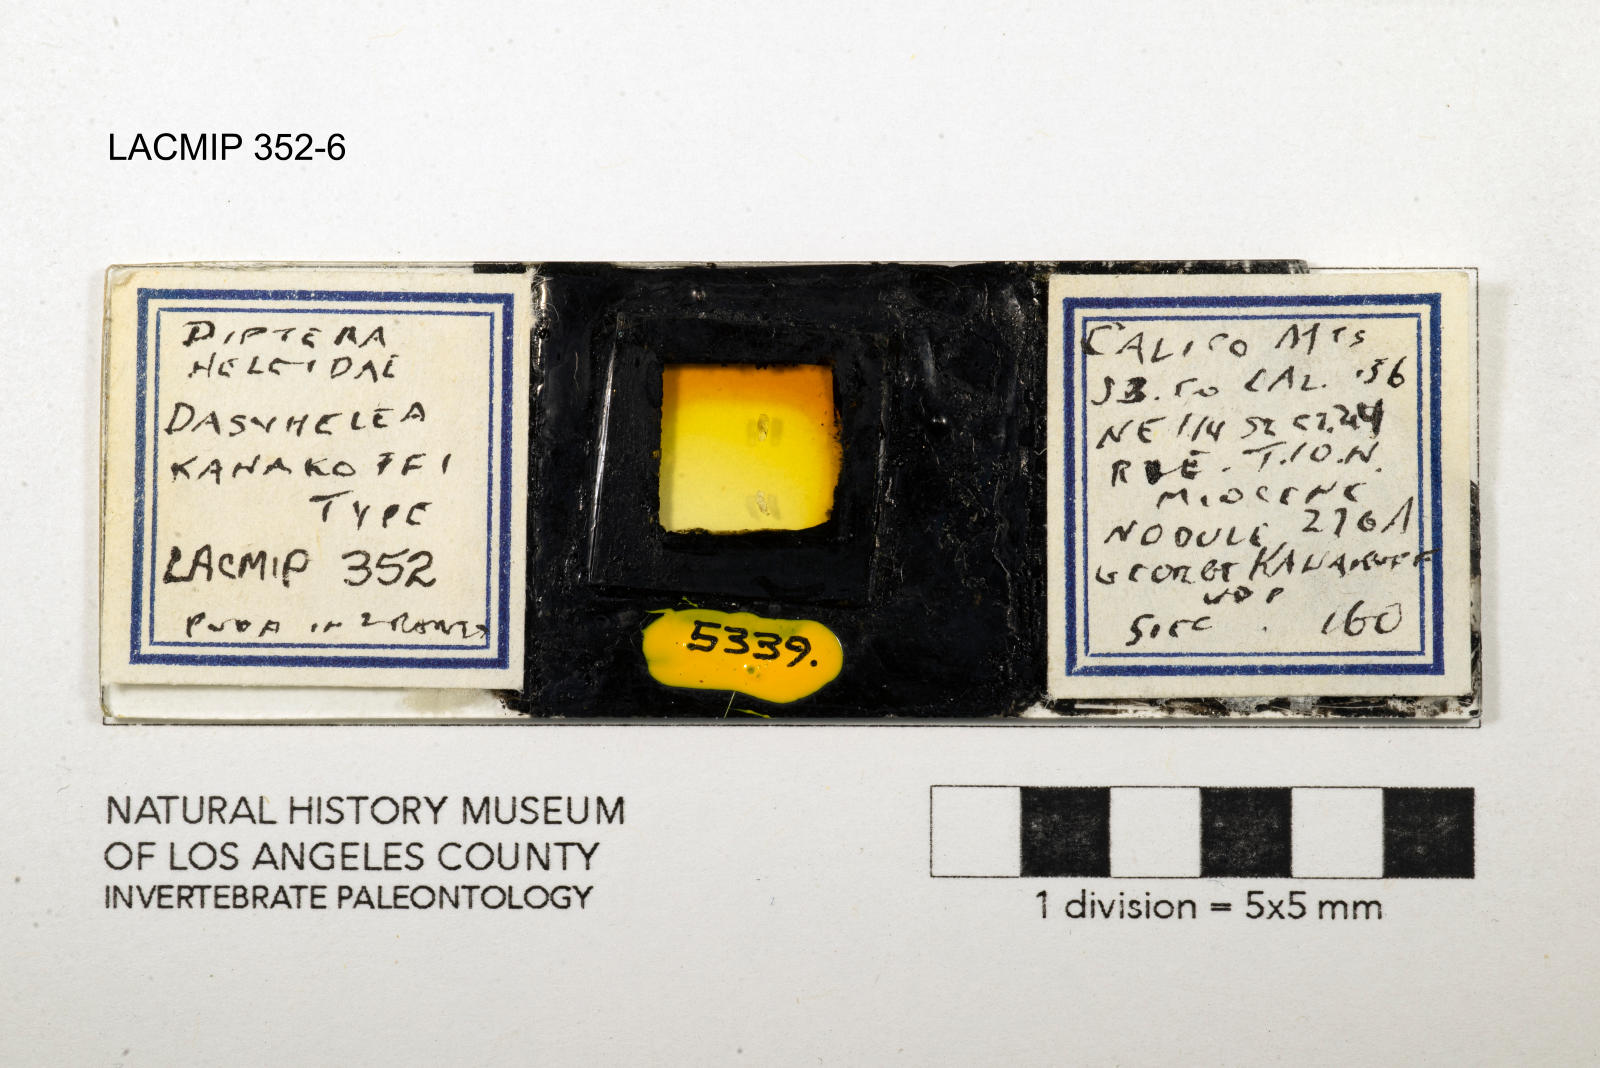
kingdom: Animalia
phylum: Arthropoda
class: Insecta
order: Diptera
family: Ceratopogonidae
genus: Dasyhelea
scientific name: Dasyhelea kanakoffi
